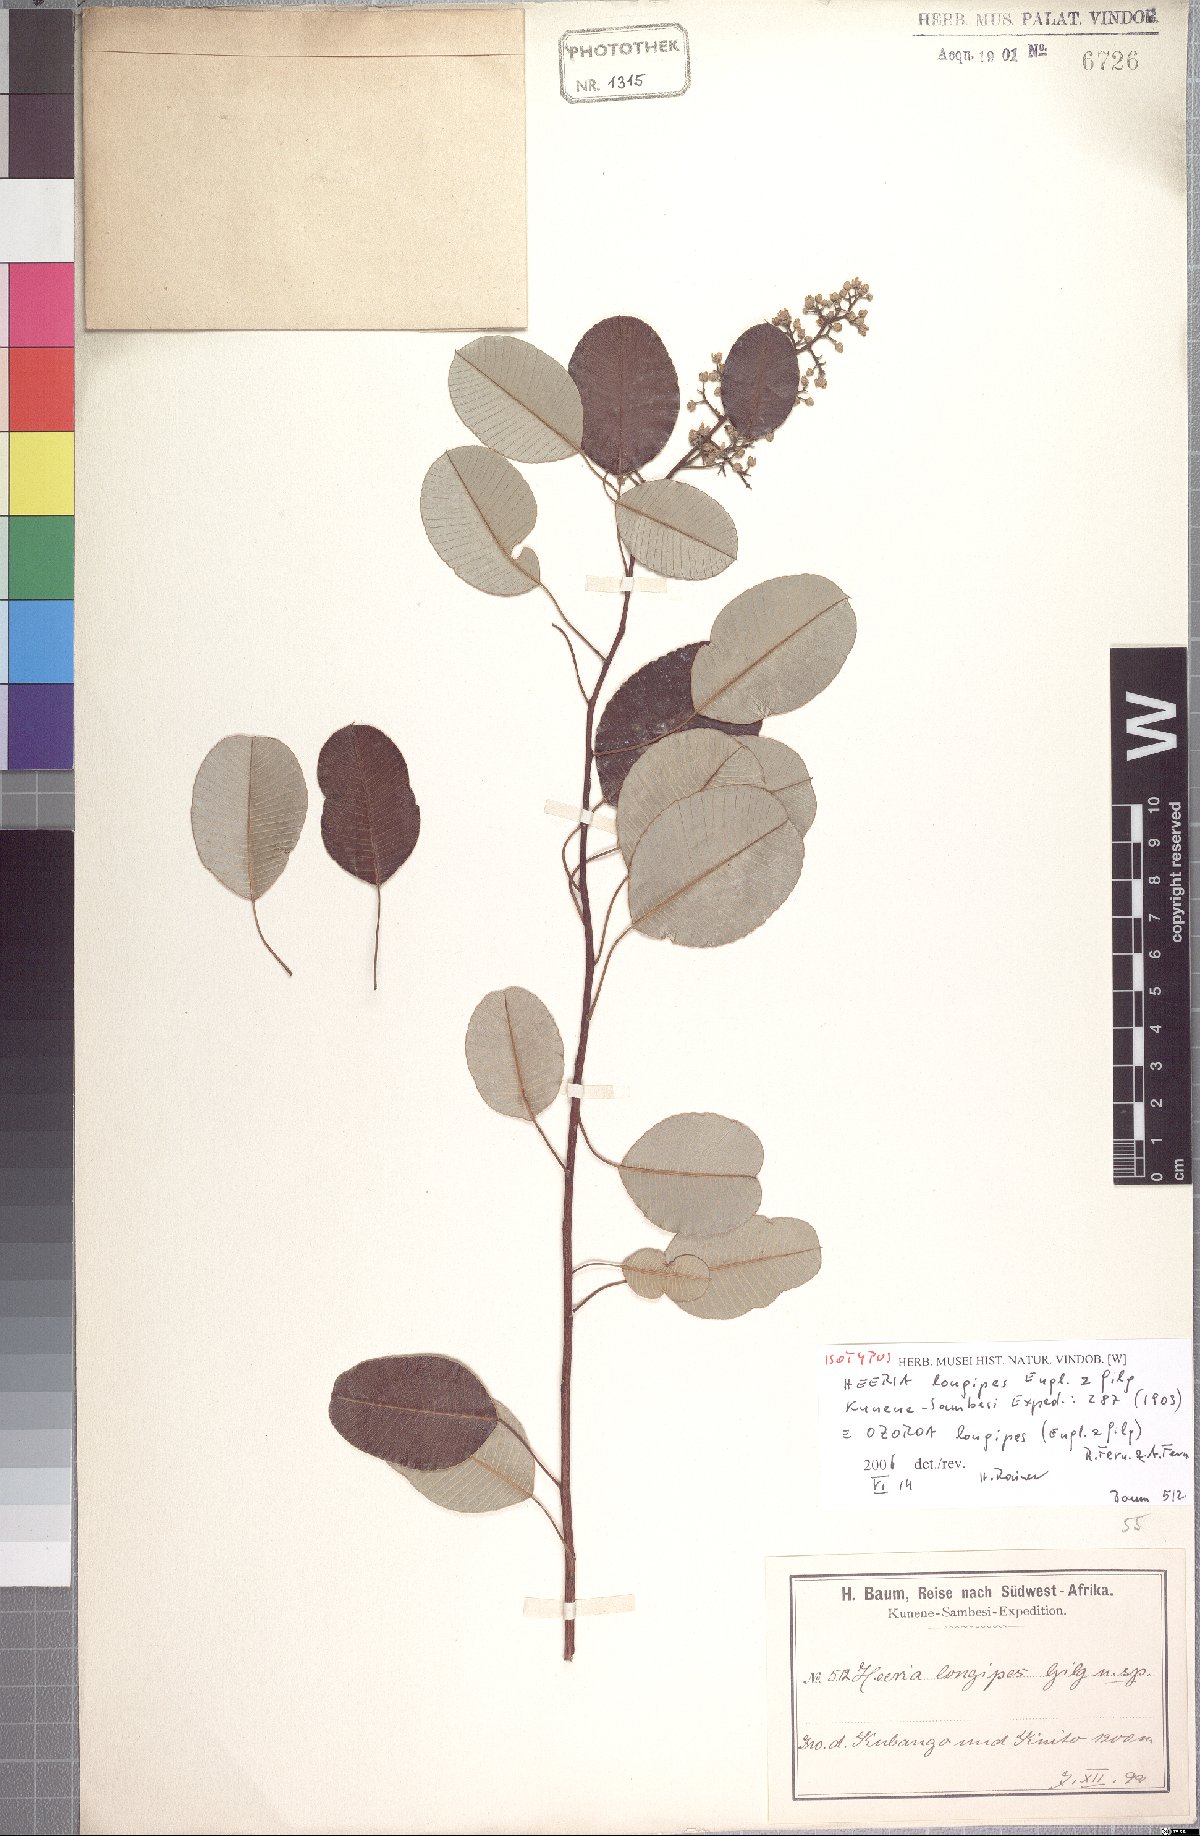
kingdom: Plantae
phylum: Tracheophyta
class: Magnoliopsida
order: Sapindales
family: Anacardiaceae
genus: Ozoroa
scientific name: Ozoroa longipes
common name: Round-leaved resin tree
